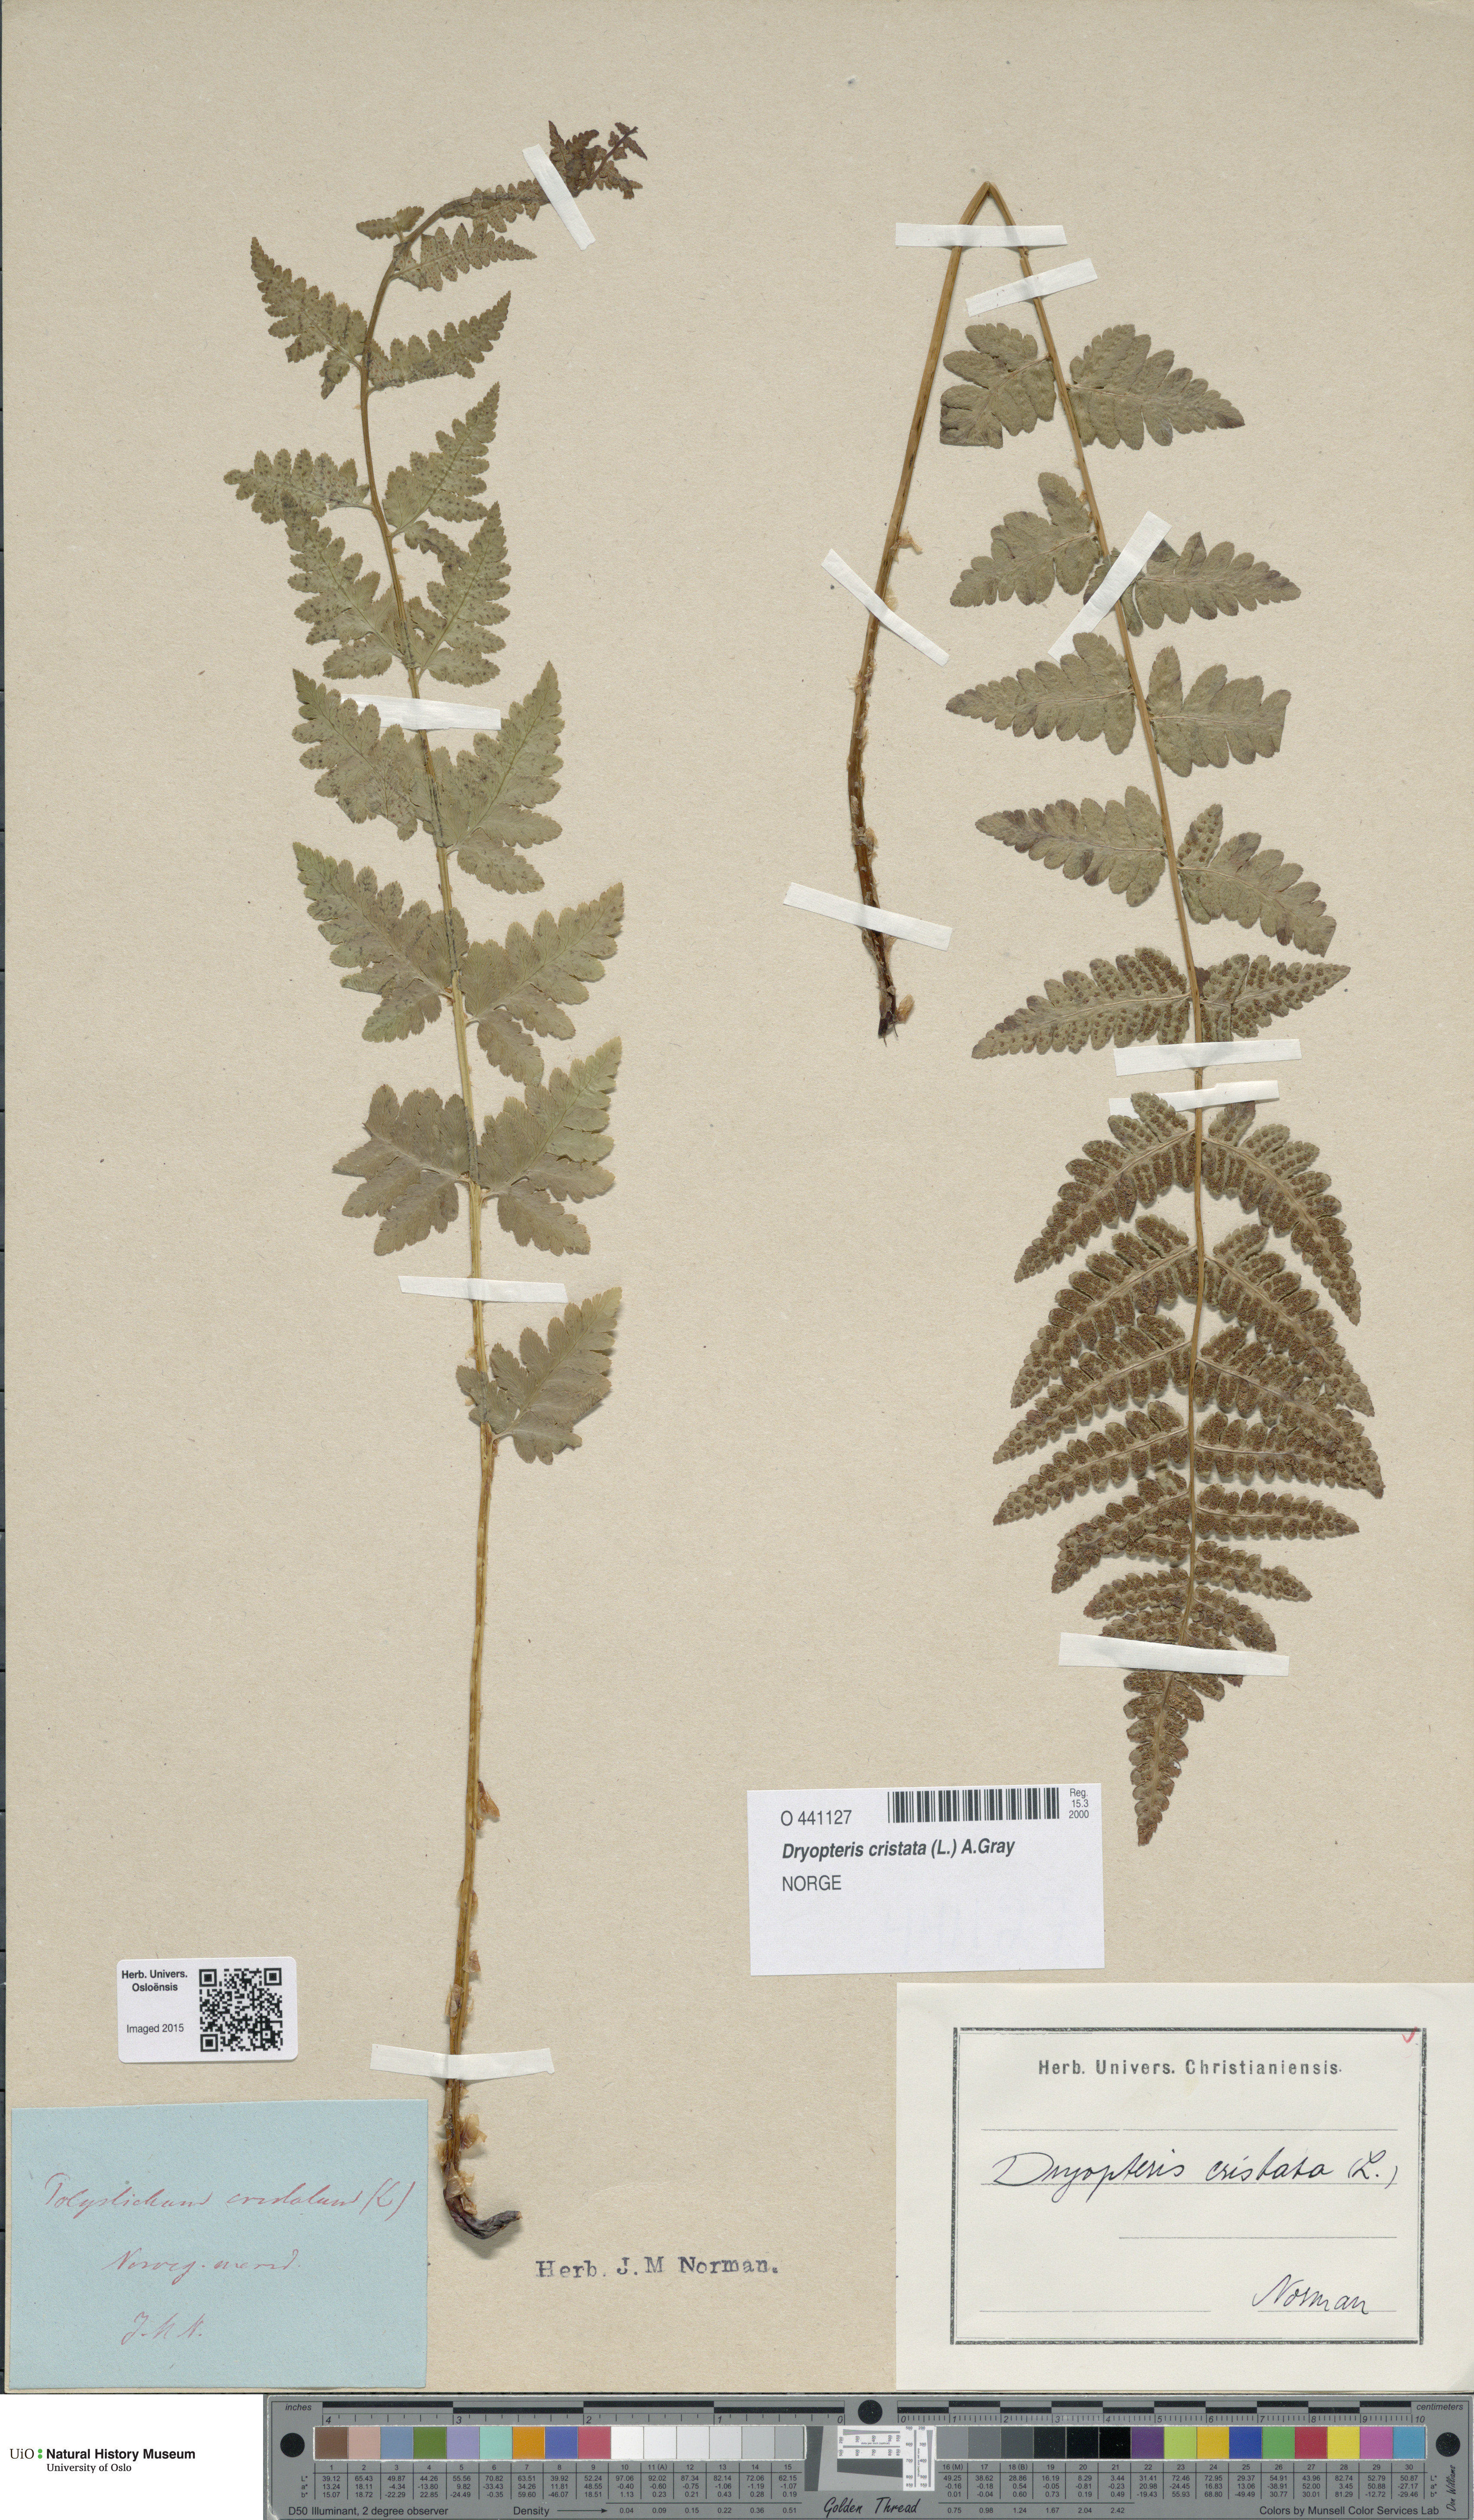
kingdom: Plantae
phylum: Tracheophyta
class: Polypodiopsida
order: Polypodiales
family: Dryopteridaceae
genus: Dryopteris
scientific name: Dryopteris cristata
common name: Crested wood fern
